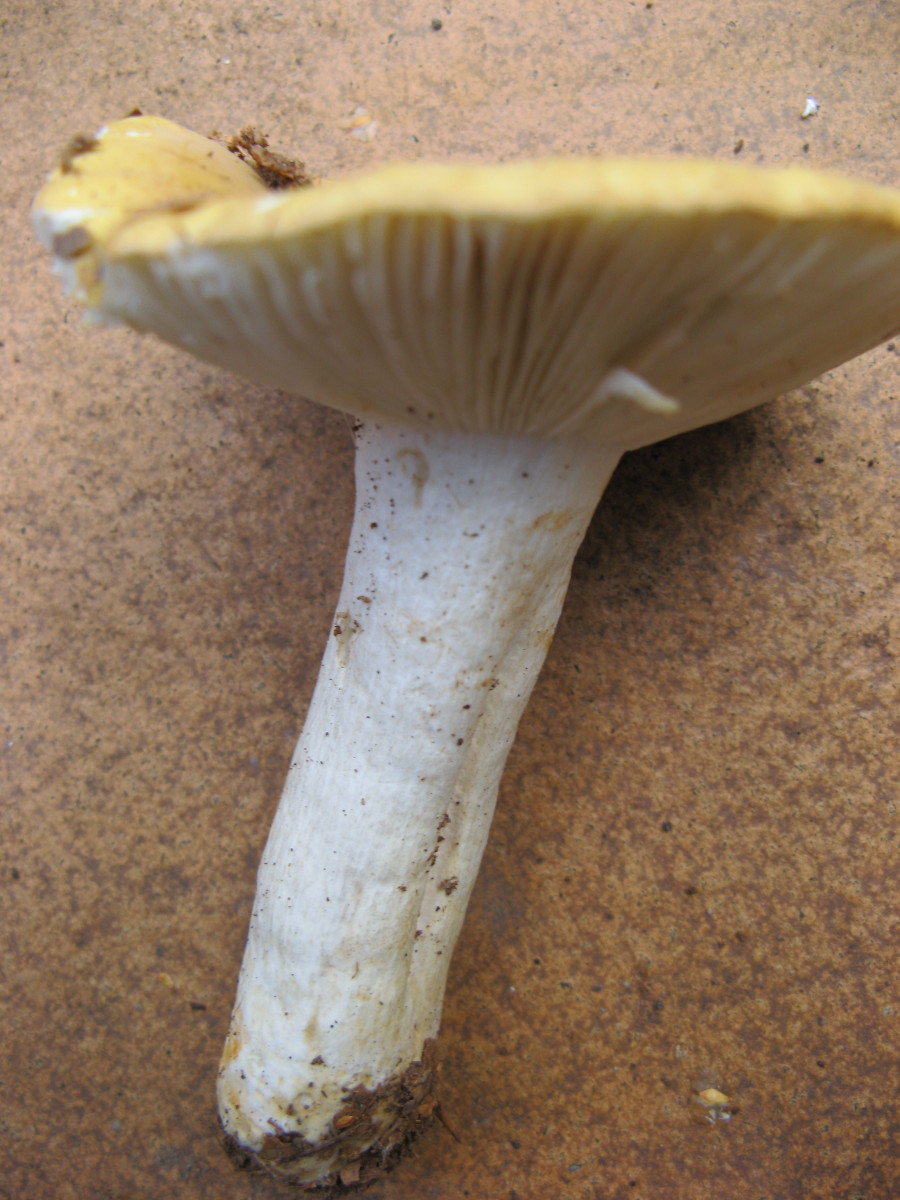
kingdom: Fungi
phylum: Basidiomycota
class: Agaricomycetes
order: Russulales
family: Russulaceae
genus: Russula
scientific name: Russula ochroleuca
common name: okkergul skørhat
